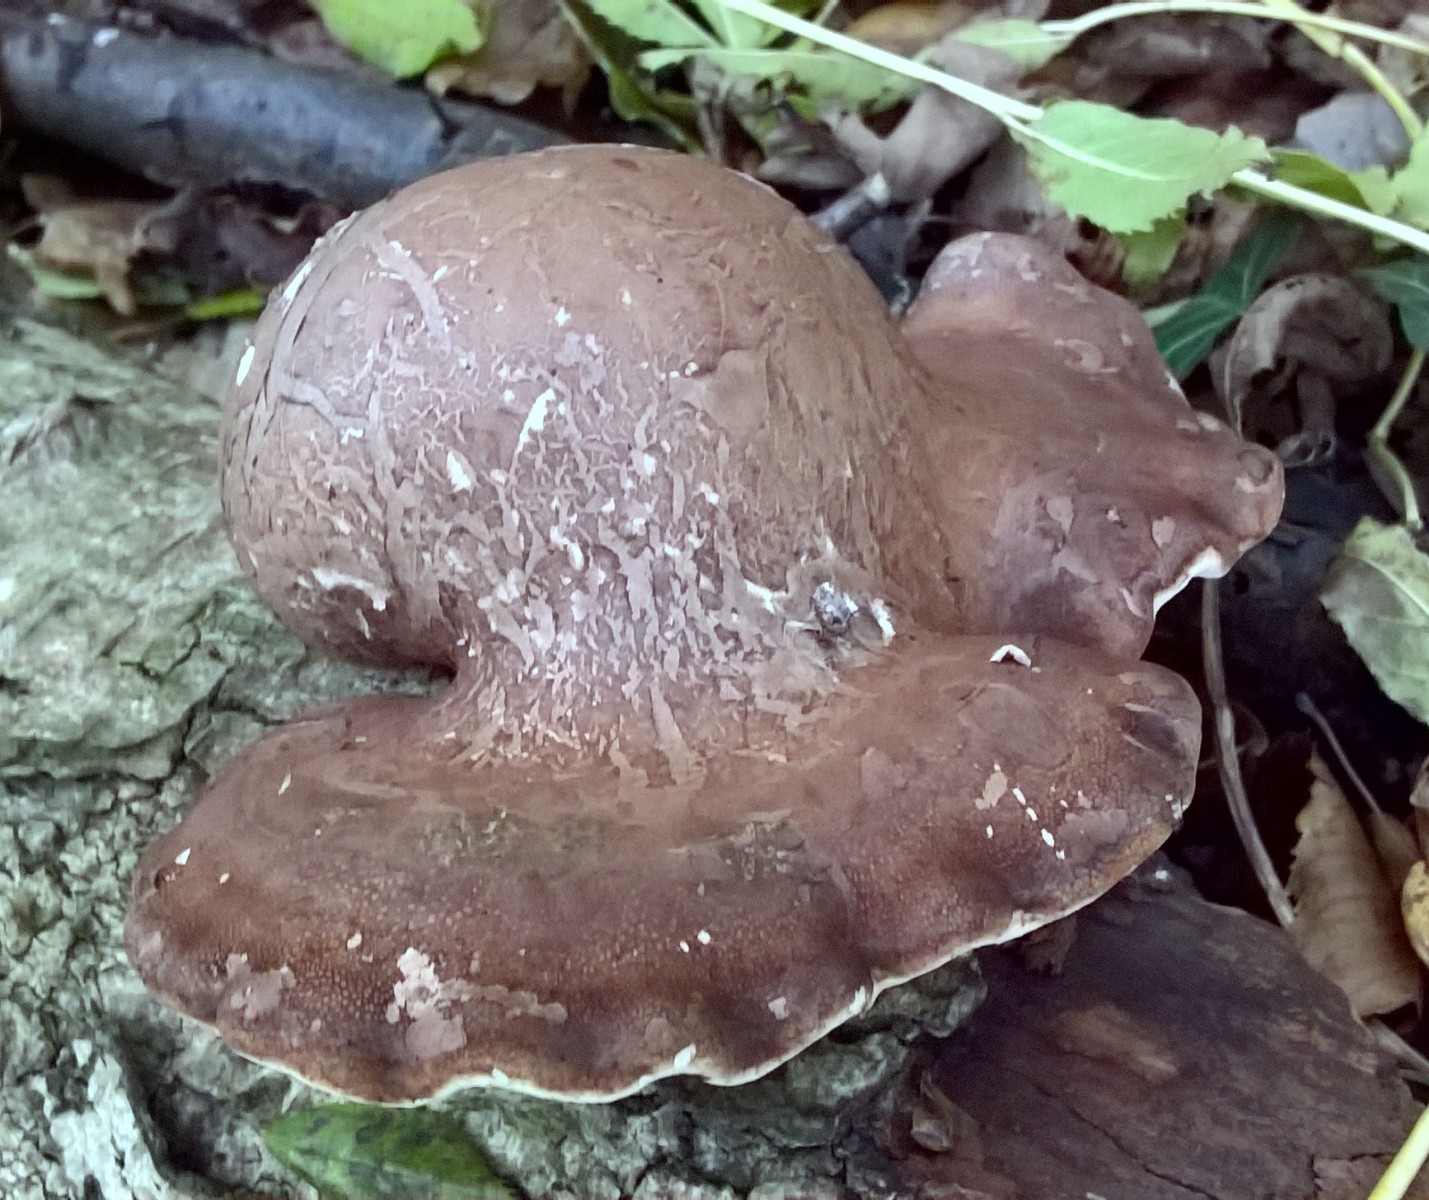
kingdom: Fungi
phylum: Basidiomycota
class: Agaricomycetes
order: Polyporales
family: Fomitopsidaceae
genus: Fomitopsis
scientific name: Fomitopsis betulina
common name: birkeporesvamp
